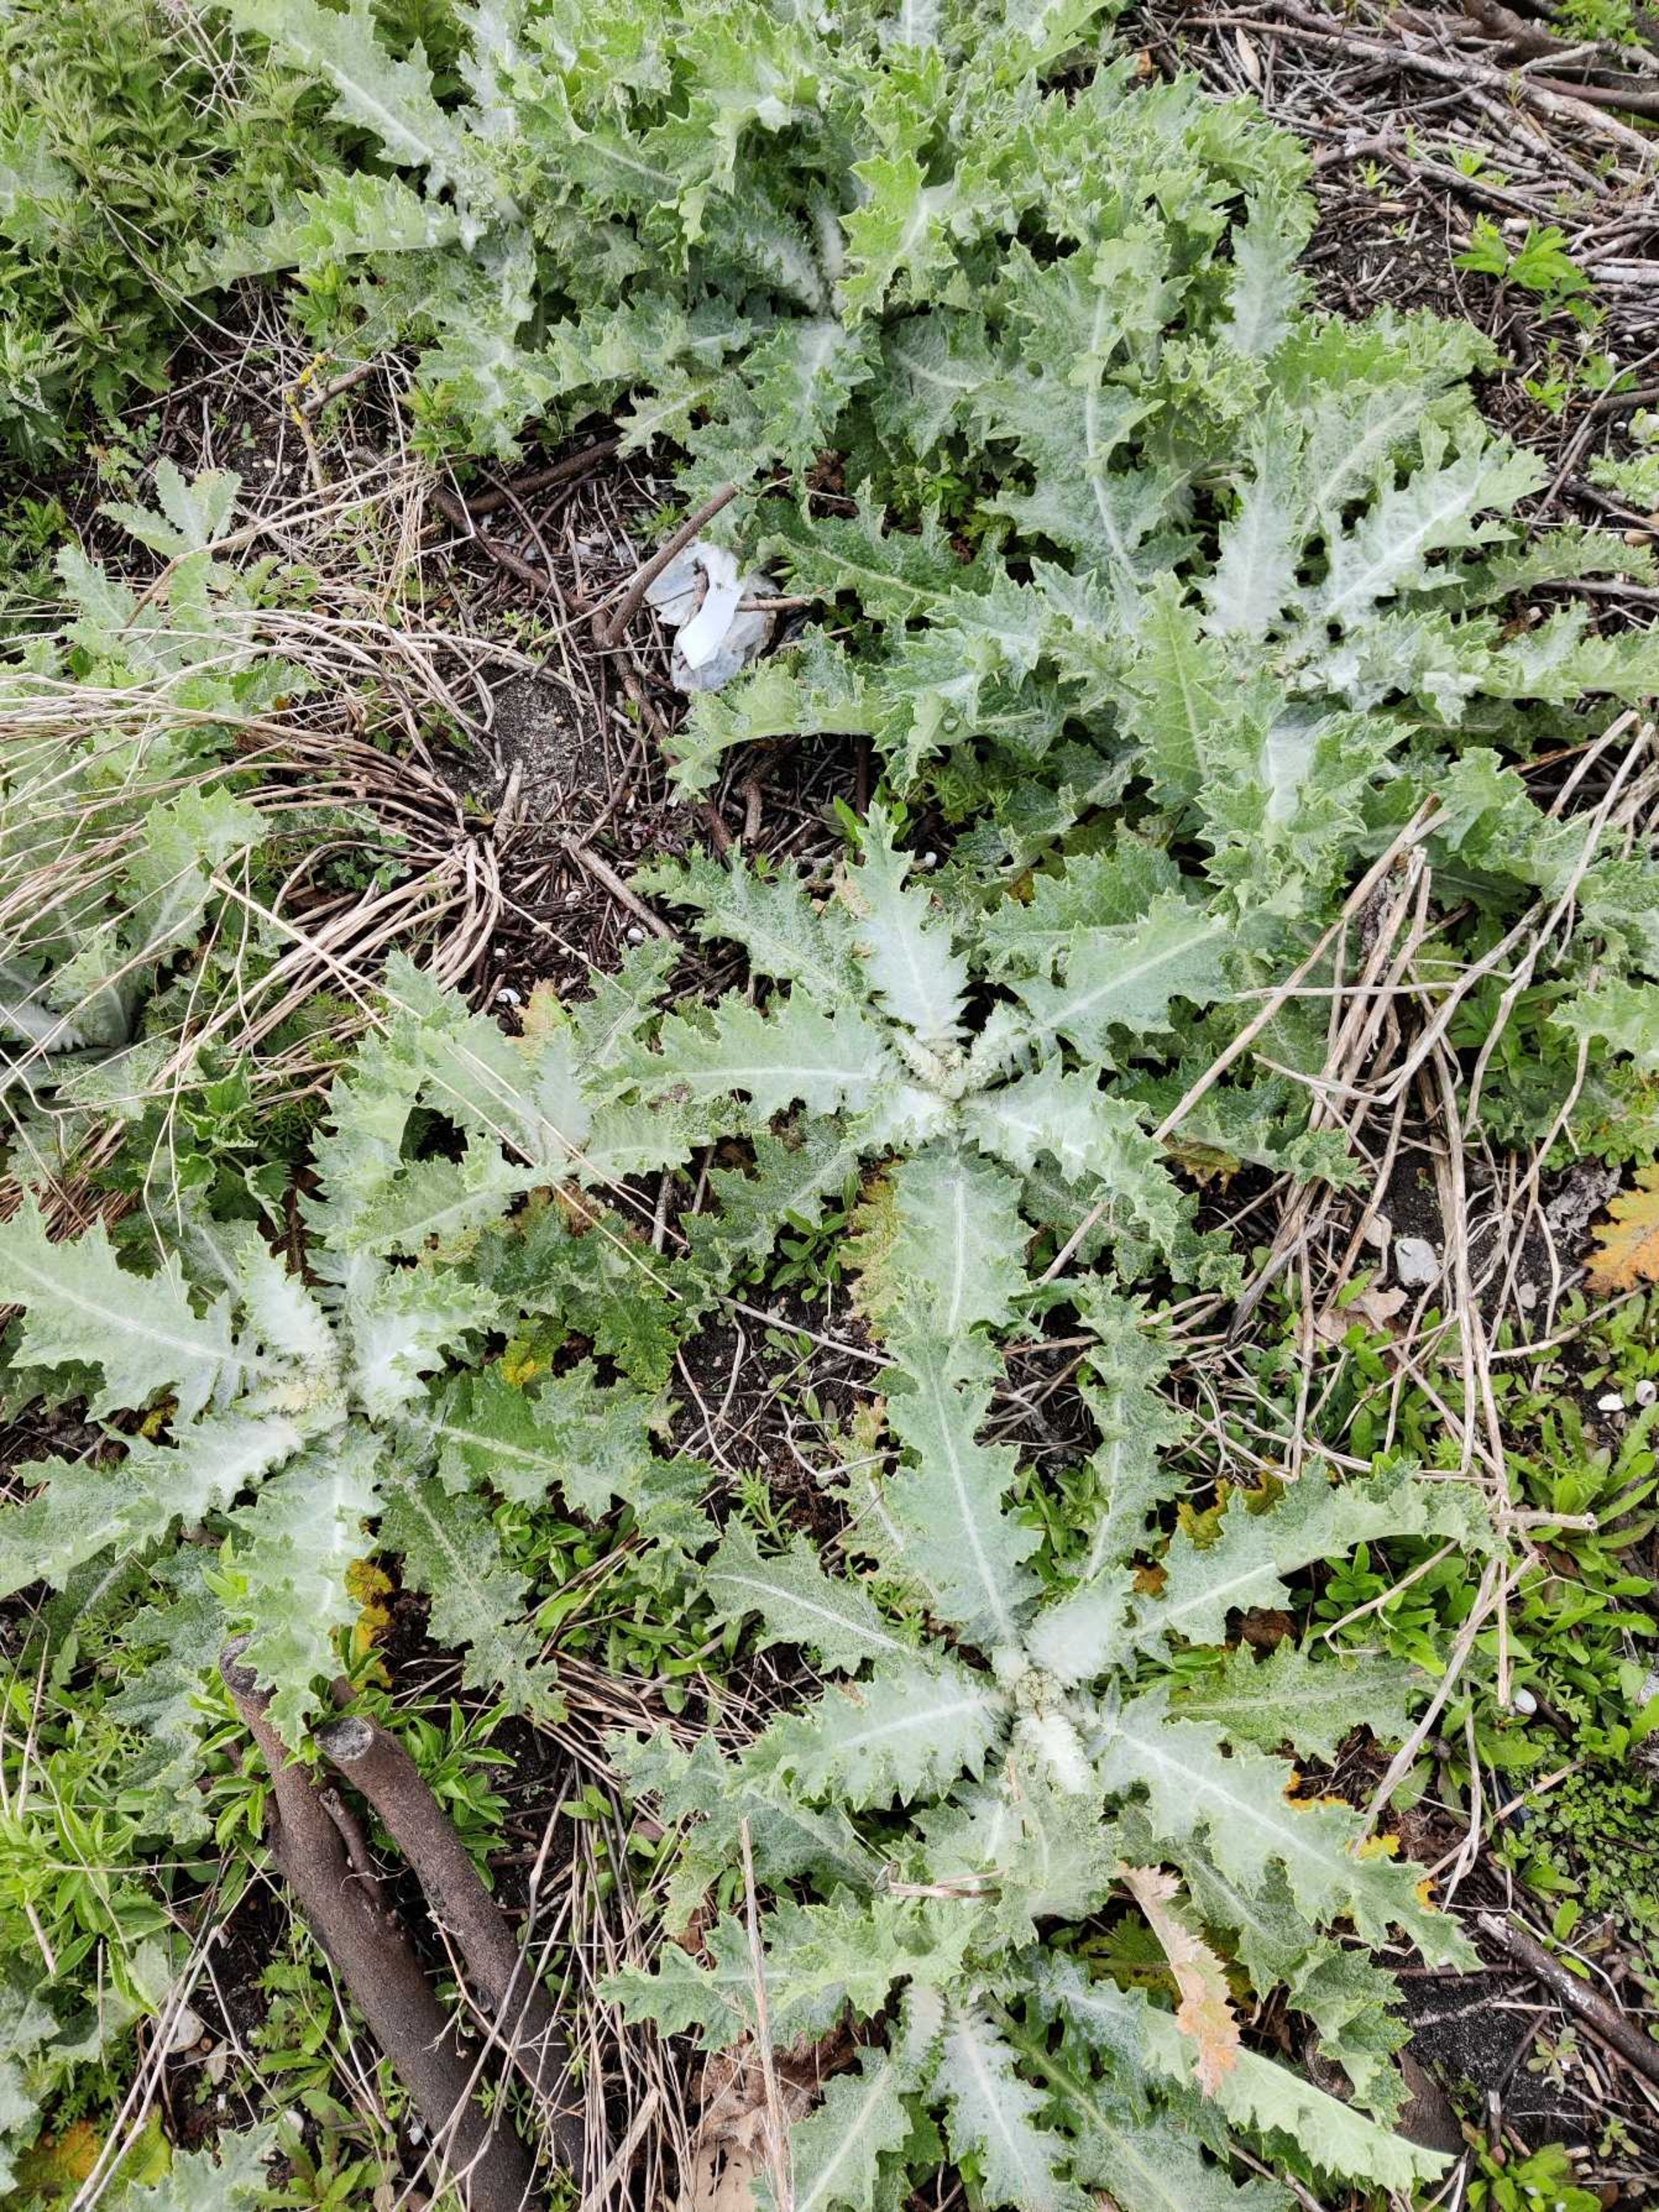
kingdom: Plantae
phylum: Tracheophyta
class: Magnoliopsida
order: Asterales
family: Asteraceae
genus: Onopordum
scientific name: Onopordum acanthium
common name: Æselfoder
